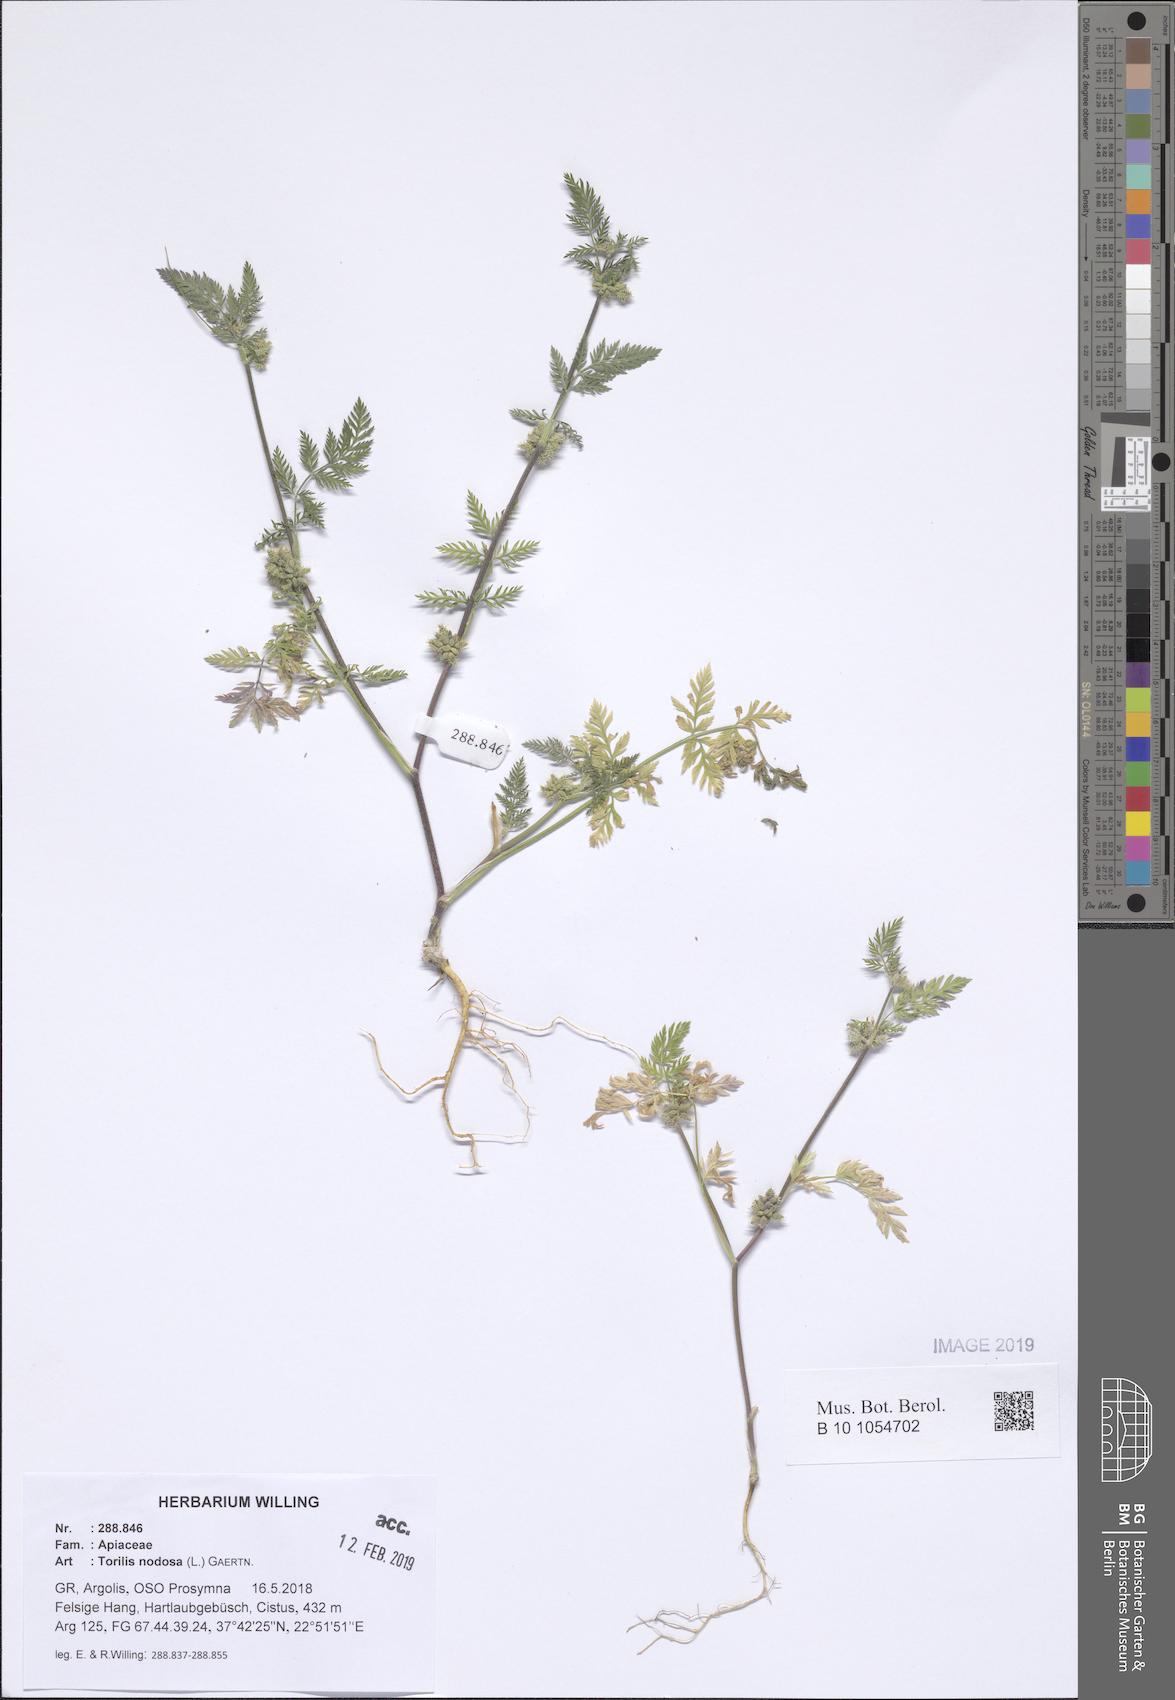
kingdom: Plantae
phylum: Tracheophyta
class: Magnoliopsida
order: Apiales
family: Apiaceae
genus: Torilis
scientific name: Torilis nodosa
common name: Knotted hedge-parsley
